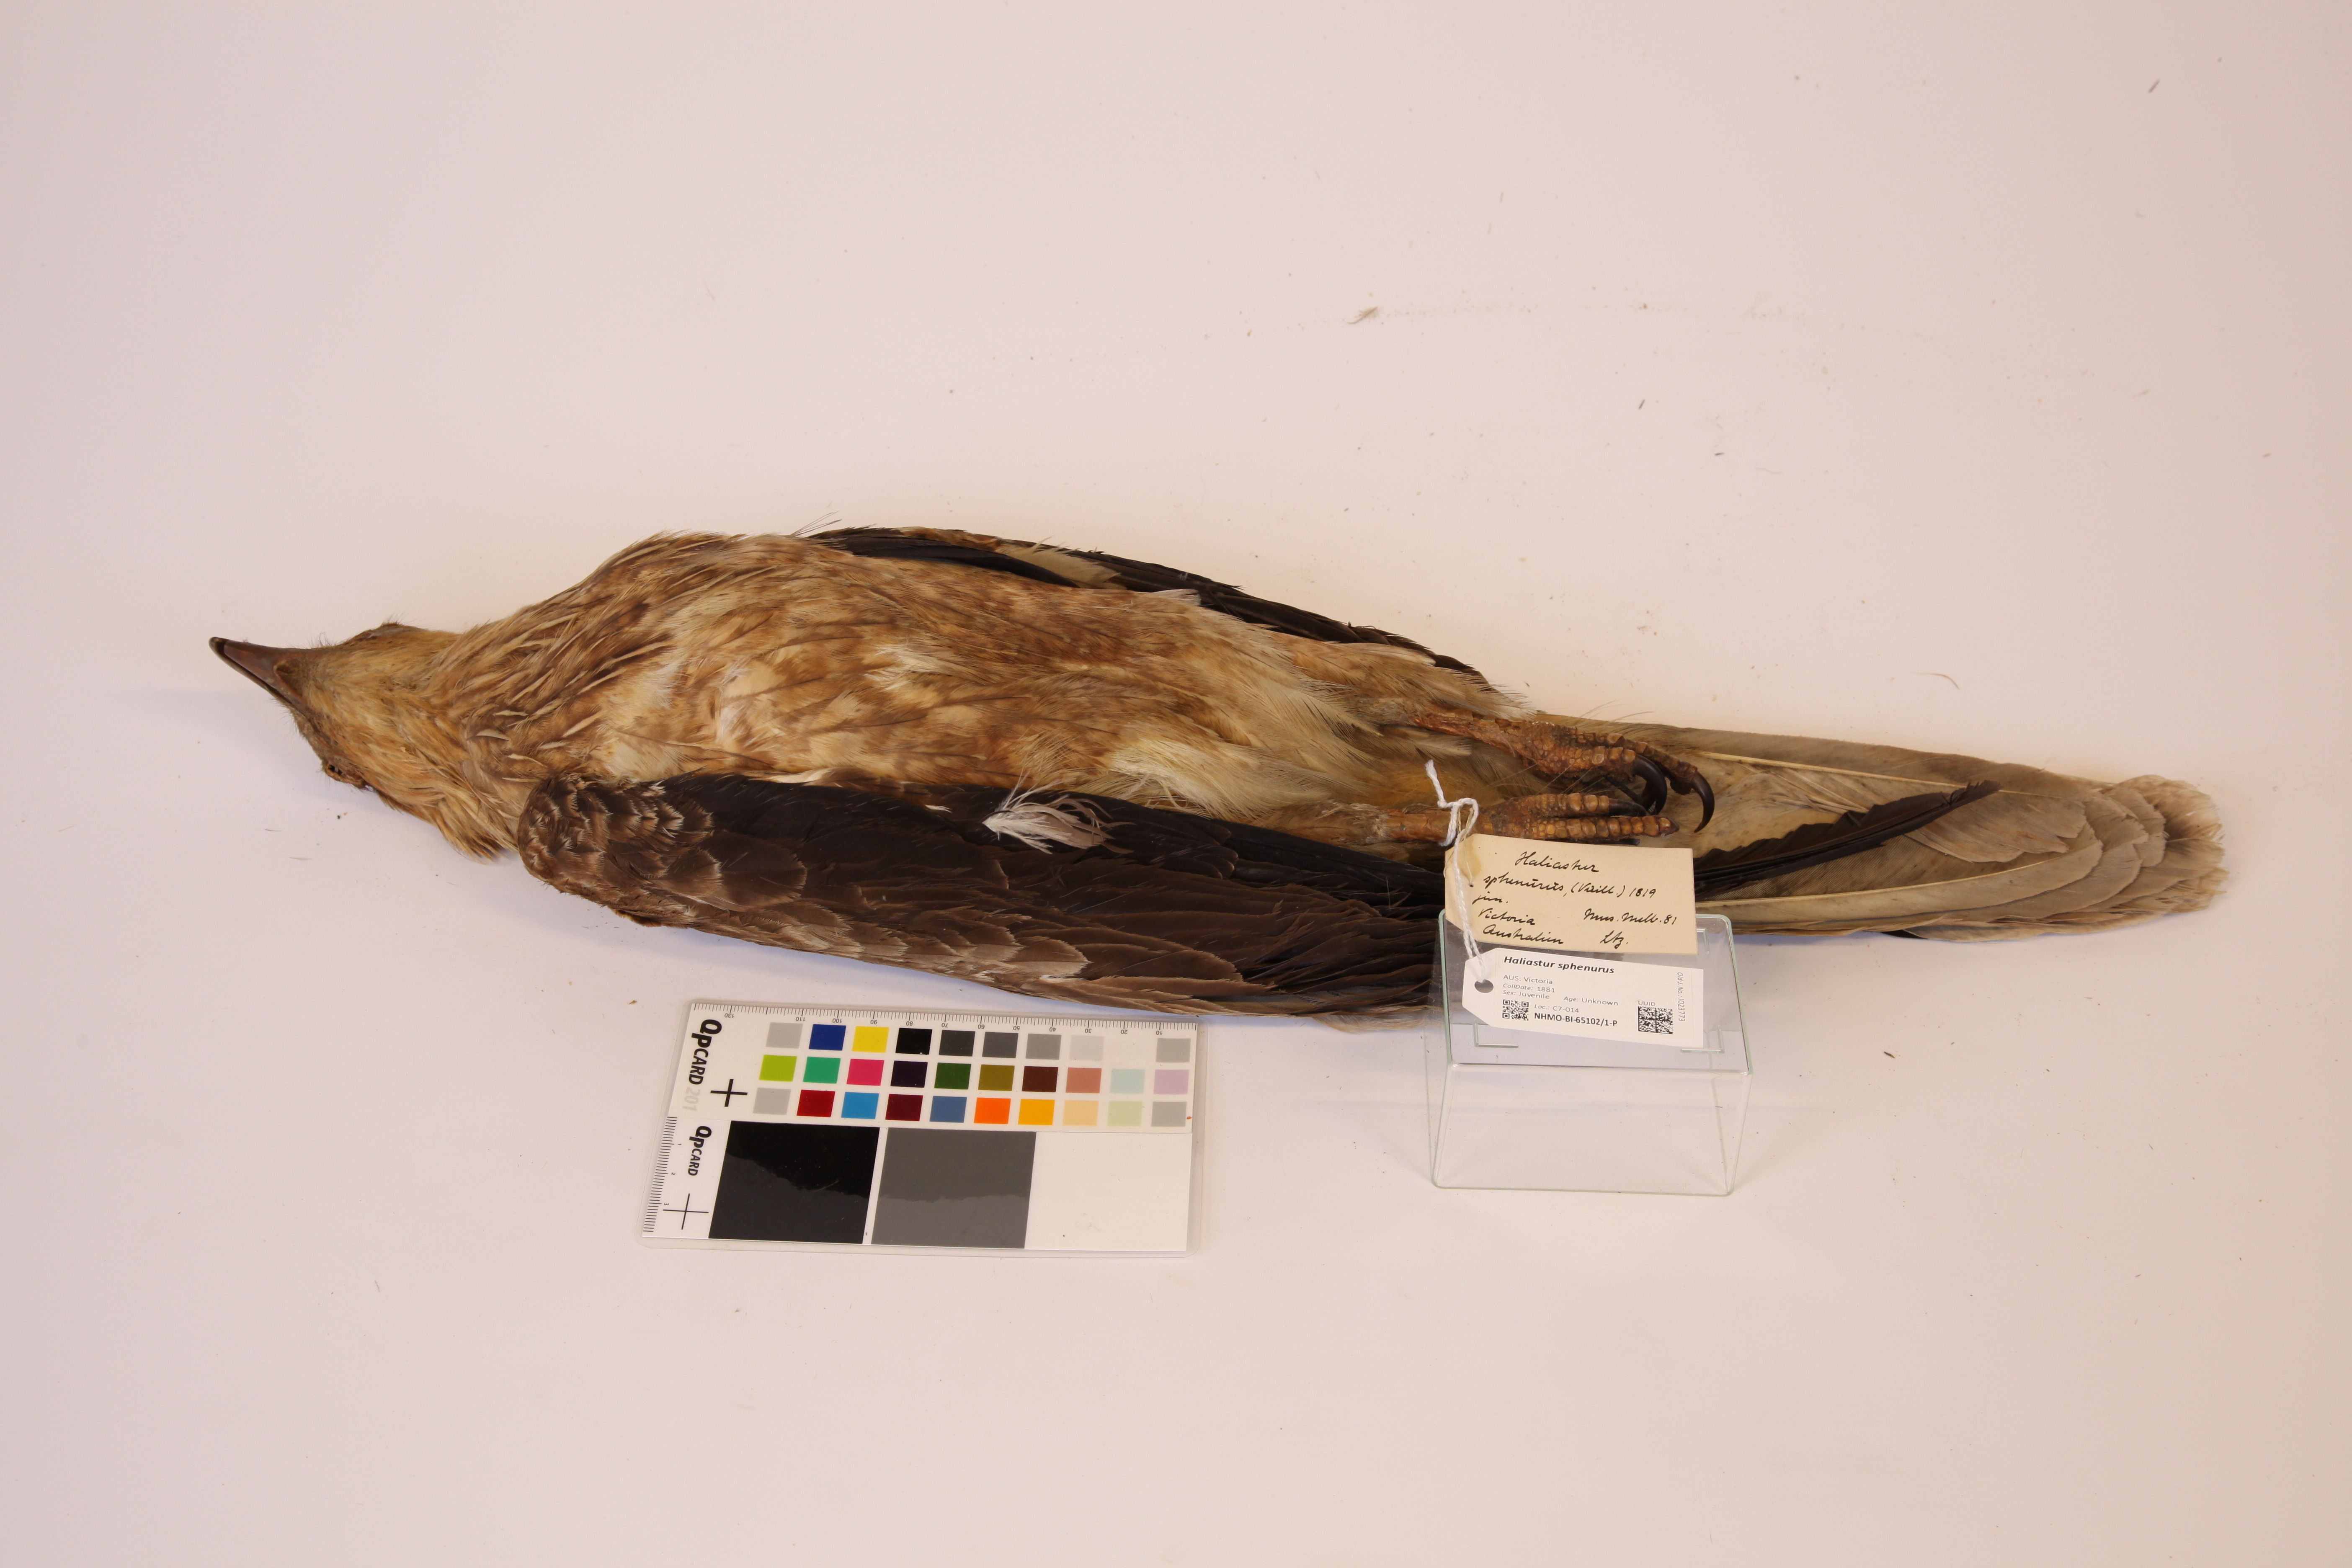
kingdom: Animalia
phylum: Chordata
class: Aves
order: Accipitriformes
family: Accipitridae
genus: Haliastur
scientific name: Haliastur sphenurus
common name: Whistling kite
